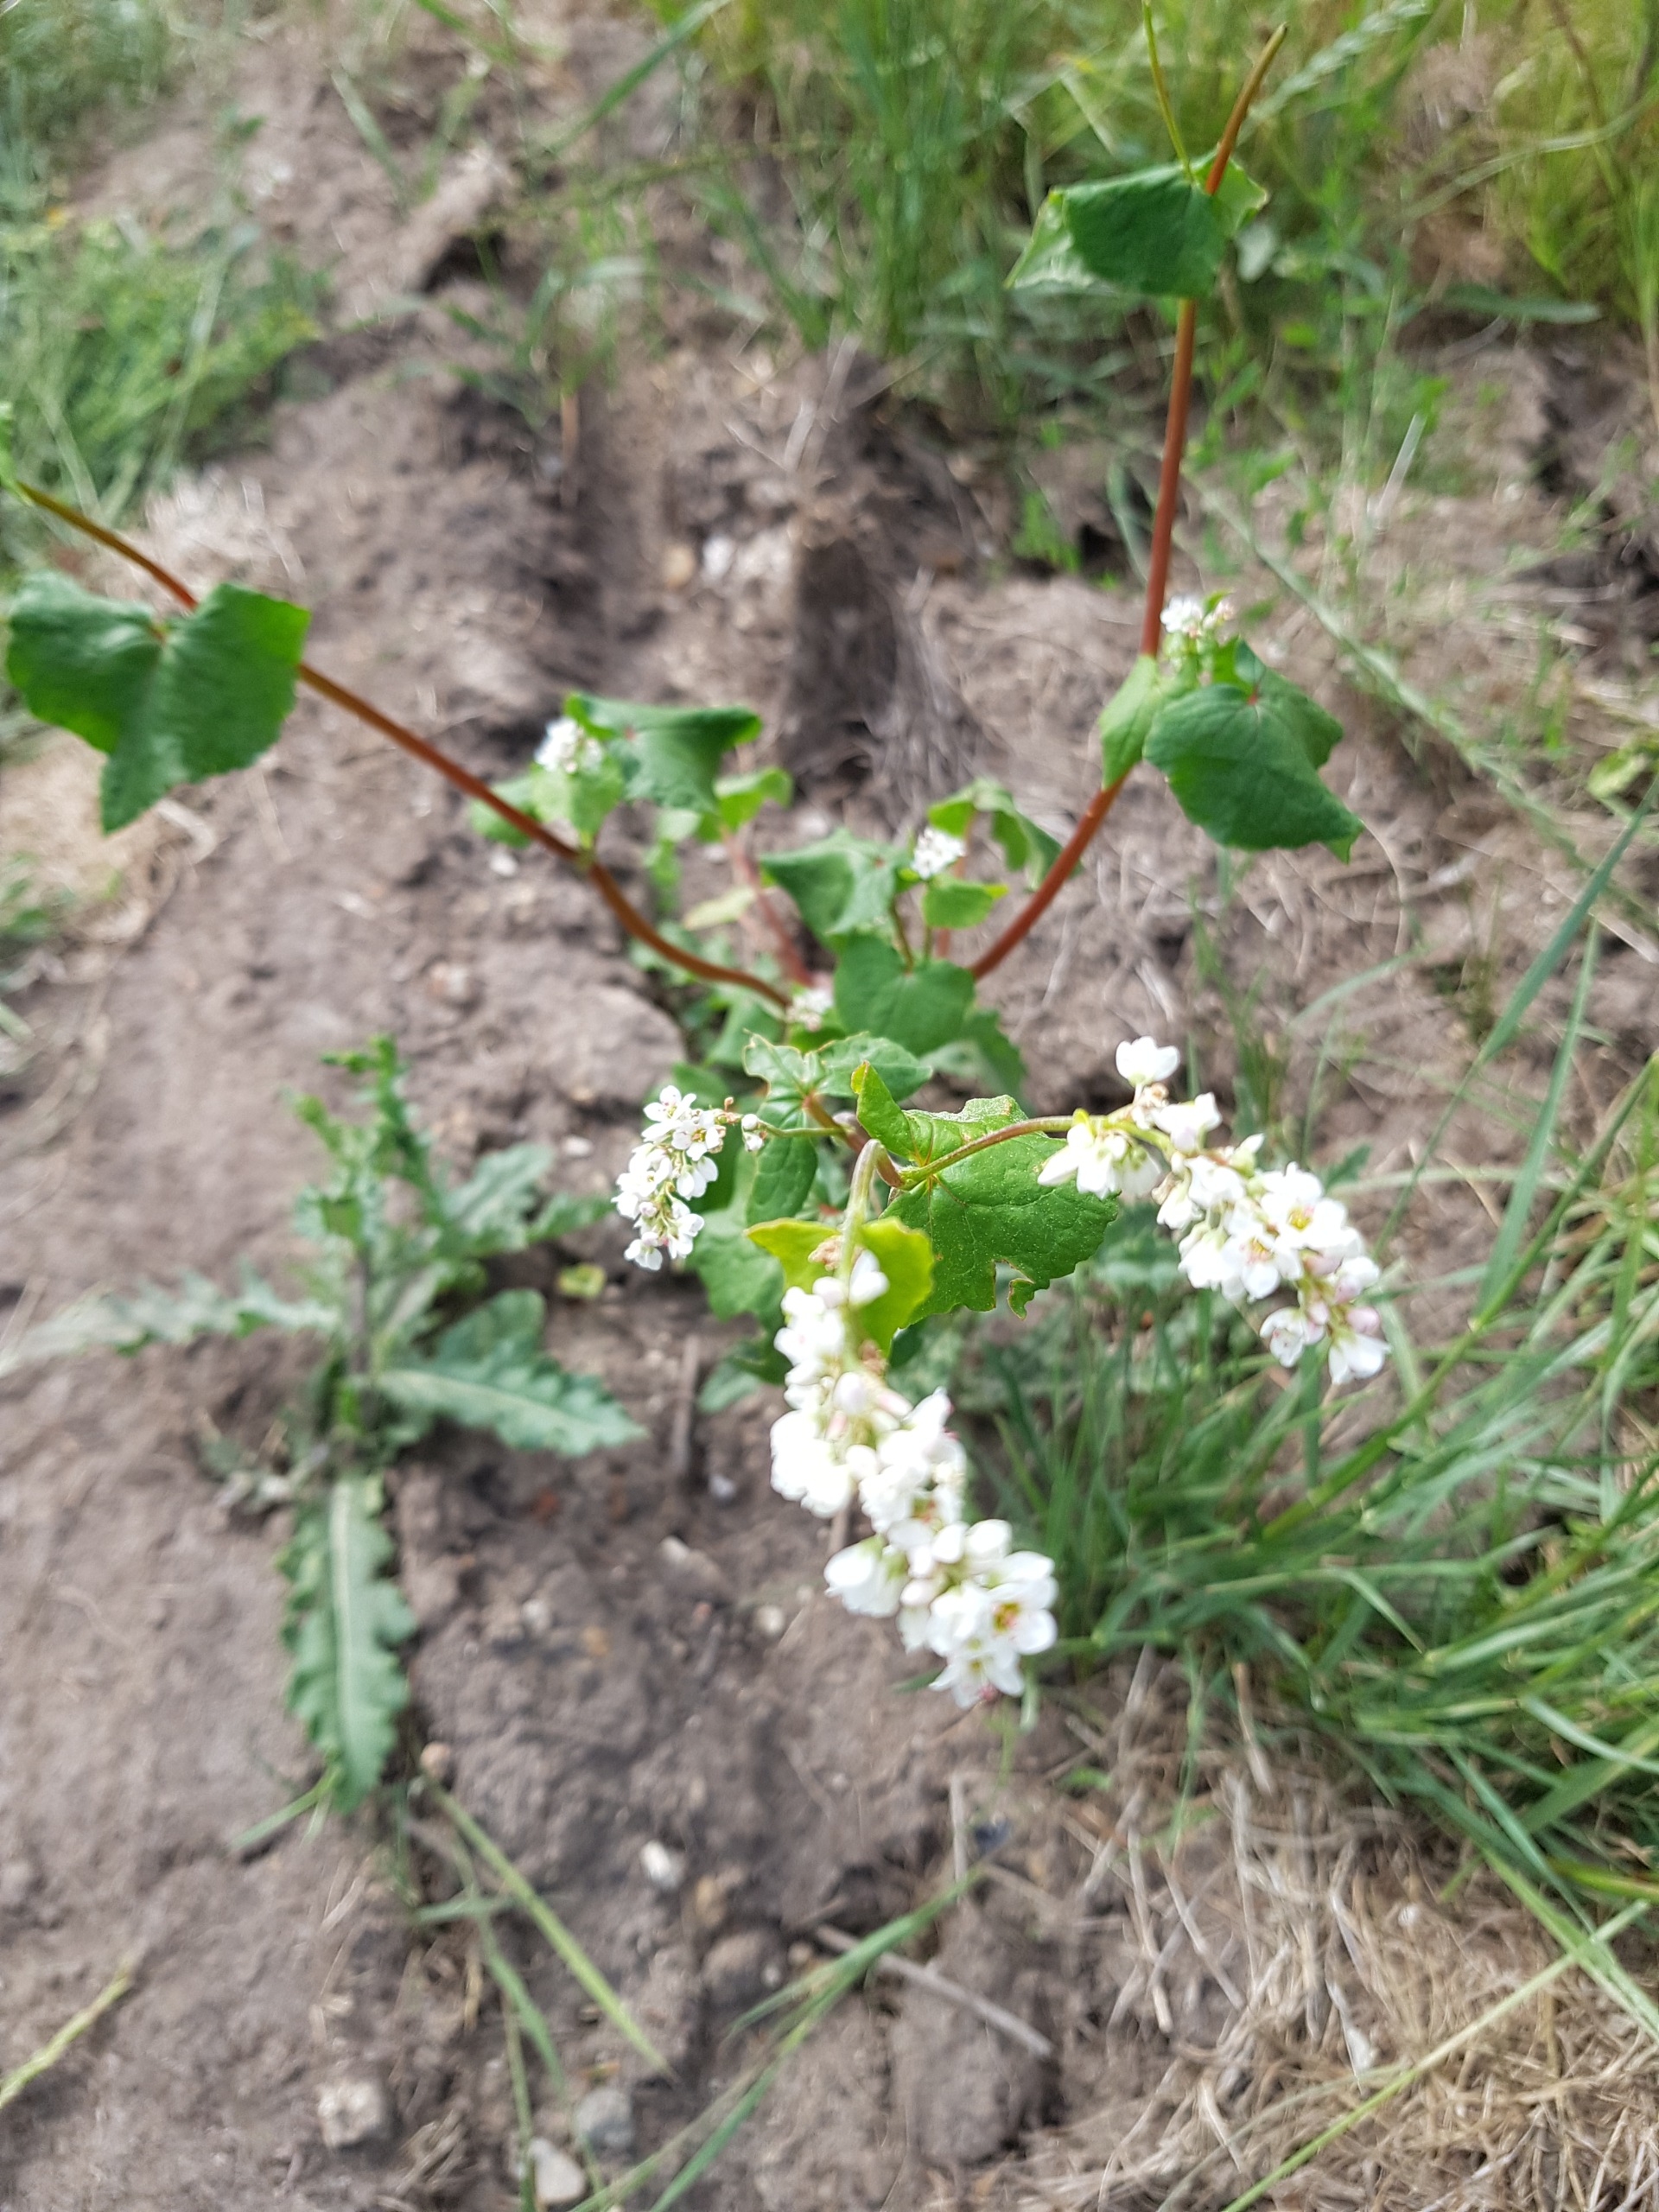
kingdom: Plantae
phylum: Tracheophyta
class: Magnoliopsida
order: Caryophyllales
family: Polygonaceae
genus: Fagopyrum
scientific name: Fagopyrum esculentum
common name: Almindelig boghvede
